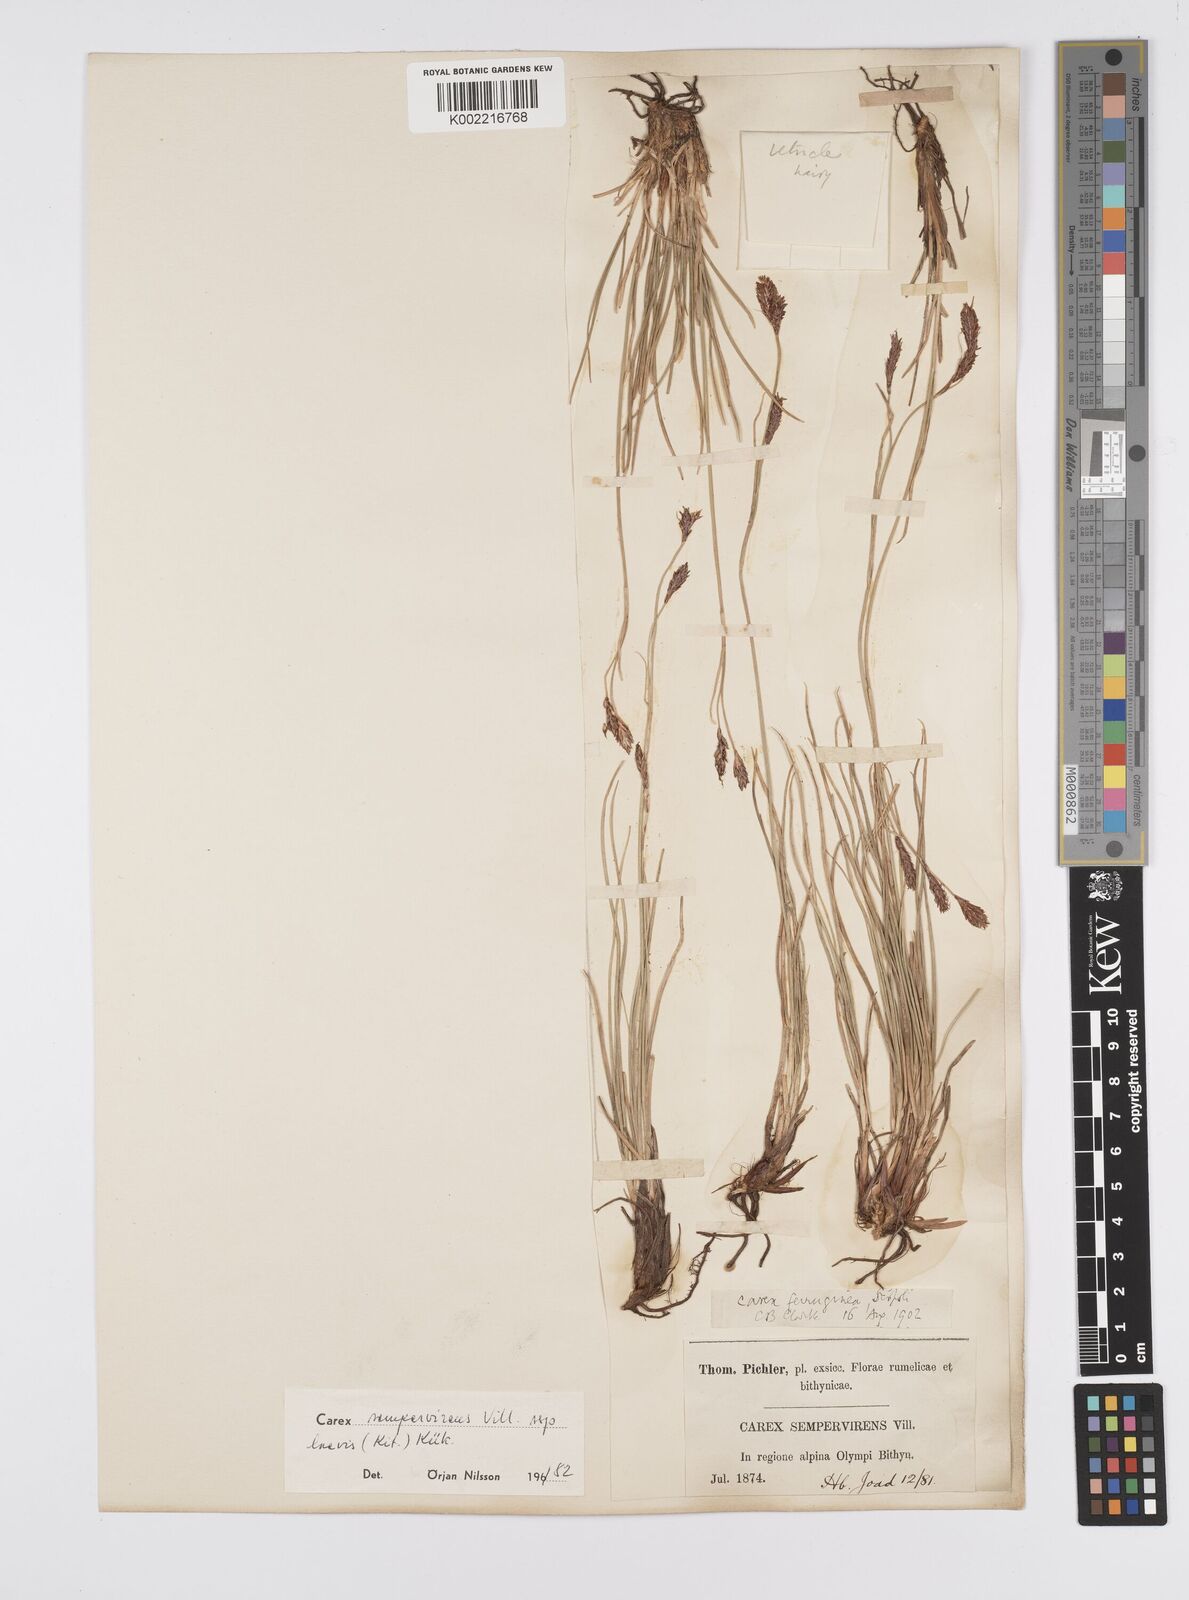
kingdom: Plantae
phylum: Tracheophyta
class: Liliopsida
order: Poales
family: Cyperaceae
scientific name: Cyperaceae
